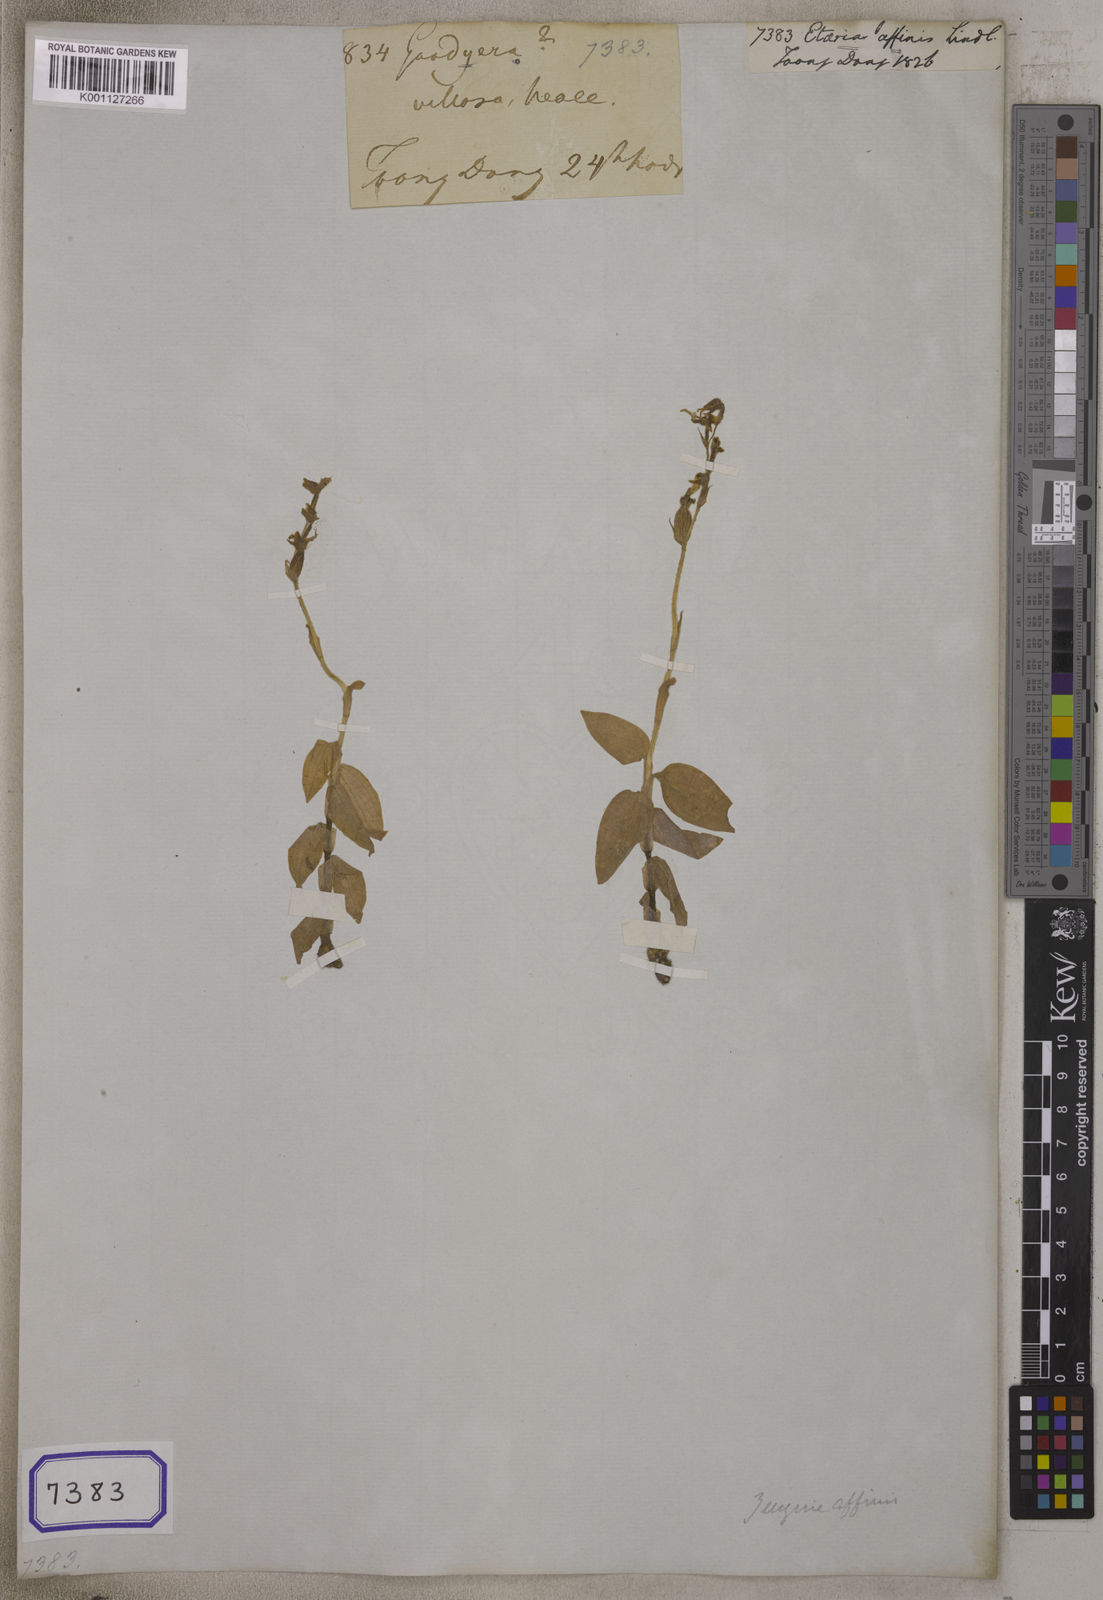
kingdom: Plantae
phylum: Tracheophyta
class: Liliopsida
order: Asparagales
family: Orchidaceae
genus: Hetaeria
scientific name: Hetaeria
